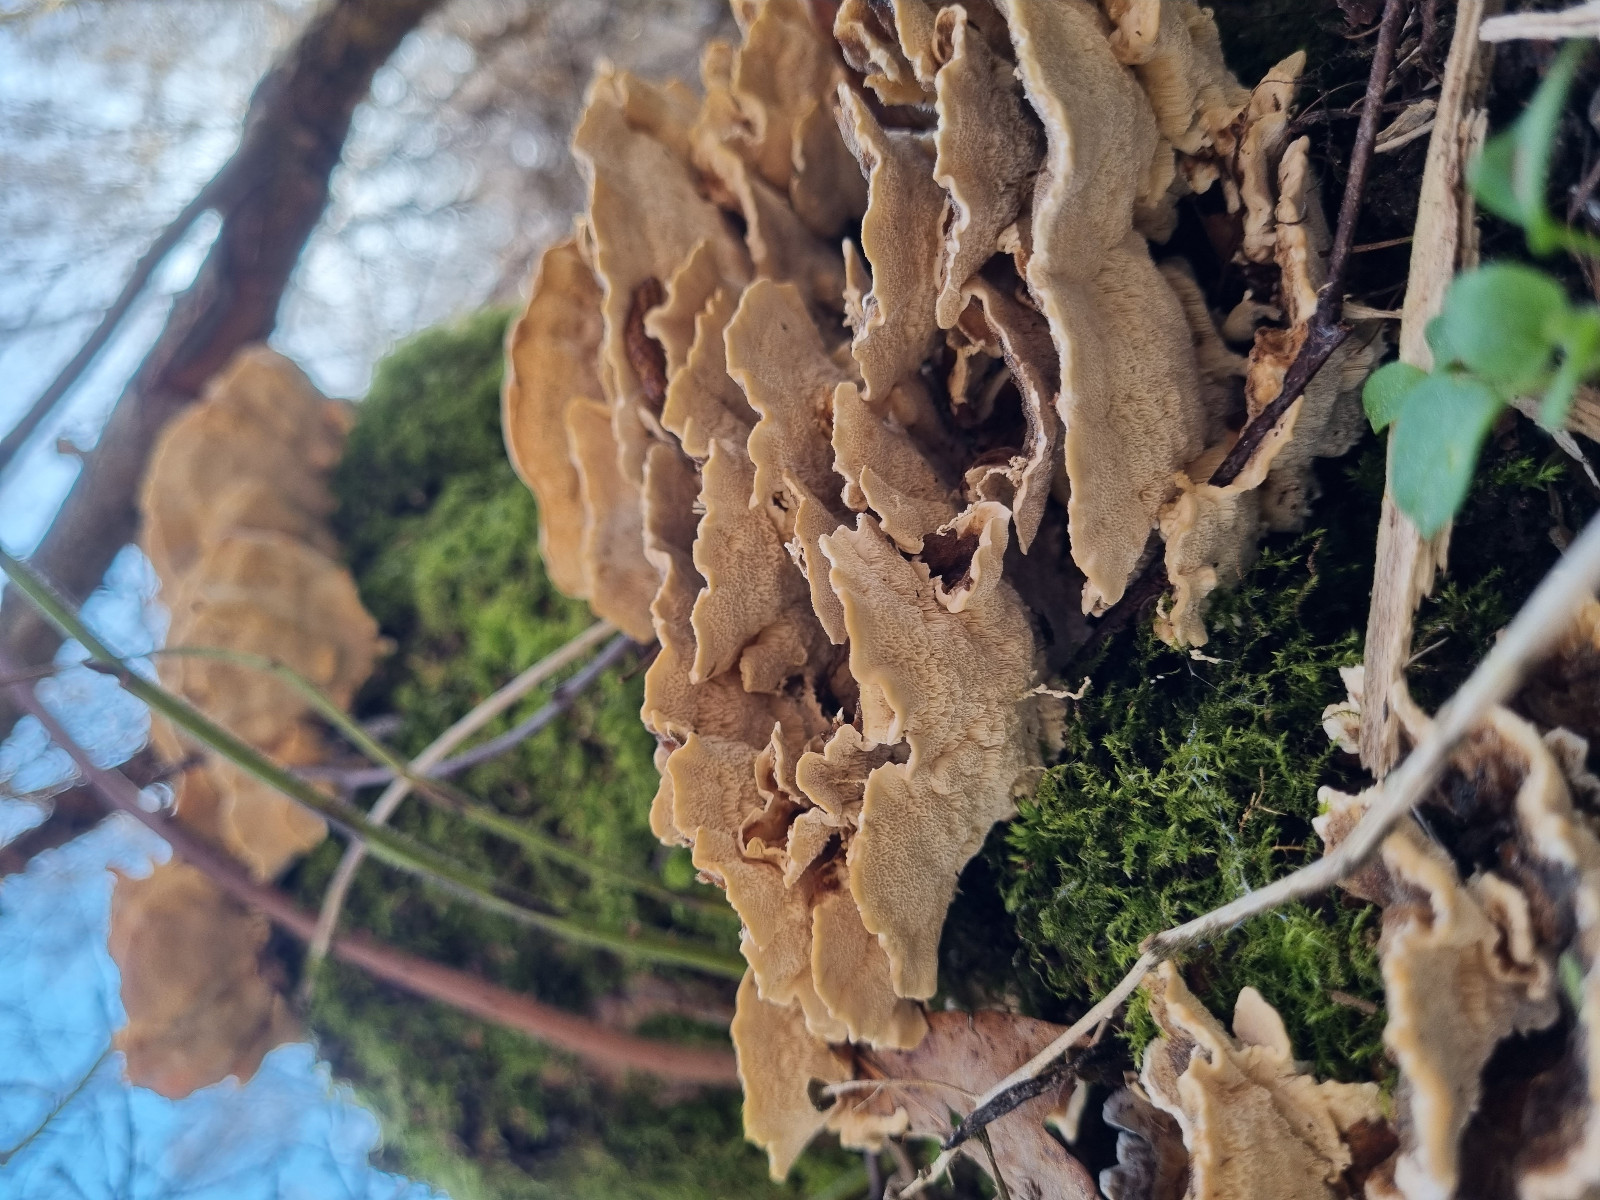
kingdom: Fungi
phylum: Basidiomycota
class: Agaricomycetes
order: Polyporales
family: Polyporaceae
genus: Trametes
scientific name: Trametes versicolor
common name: broget læderporesvamp
